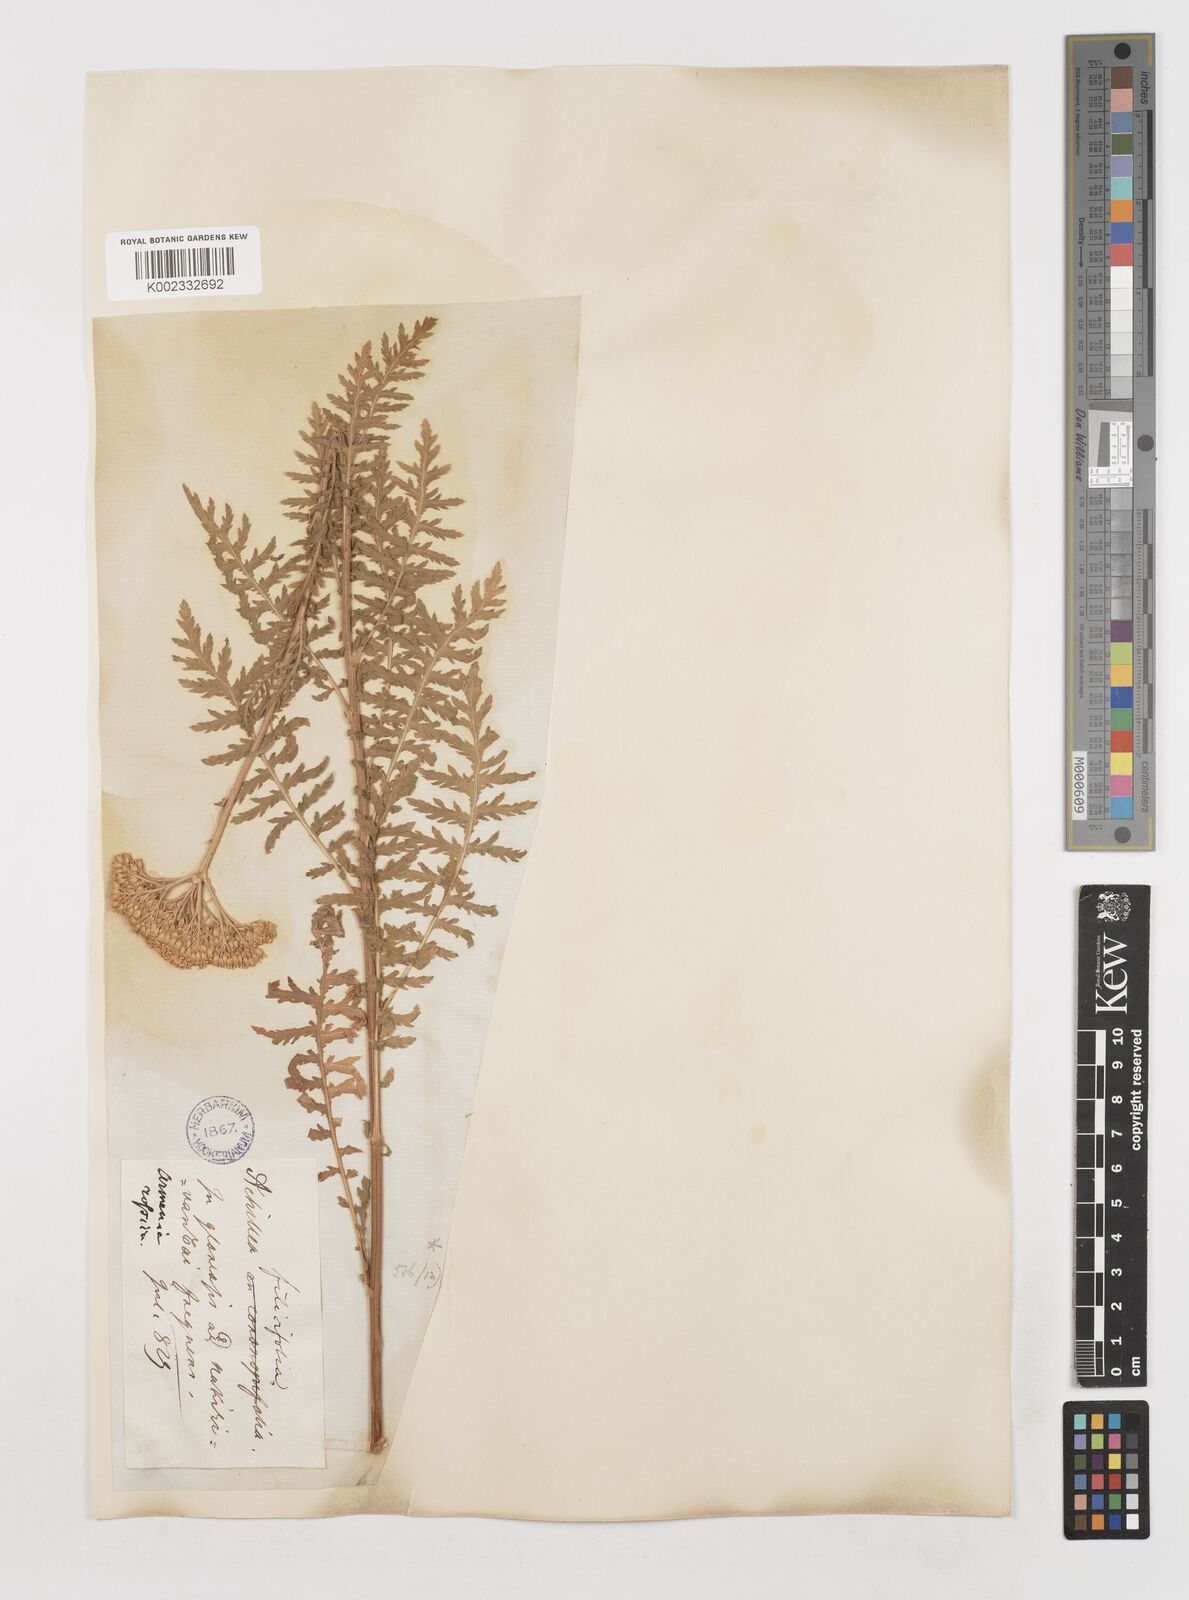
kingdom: Plantae
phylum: Tracheophyta
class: Magnoliopsida
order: Asterales
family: Asteraceae
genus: Achillea
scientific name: Achillea filipendulina
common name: Fernleaf yarrow
